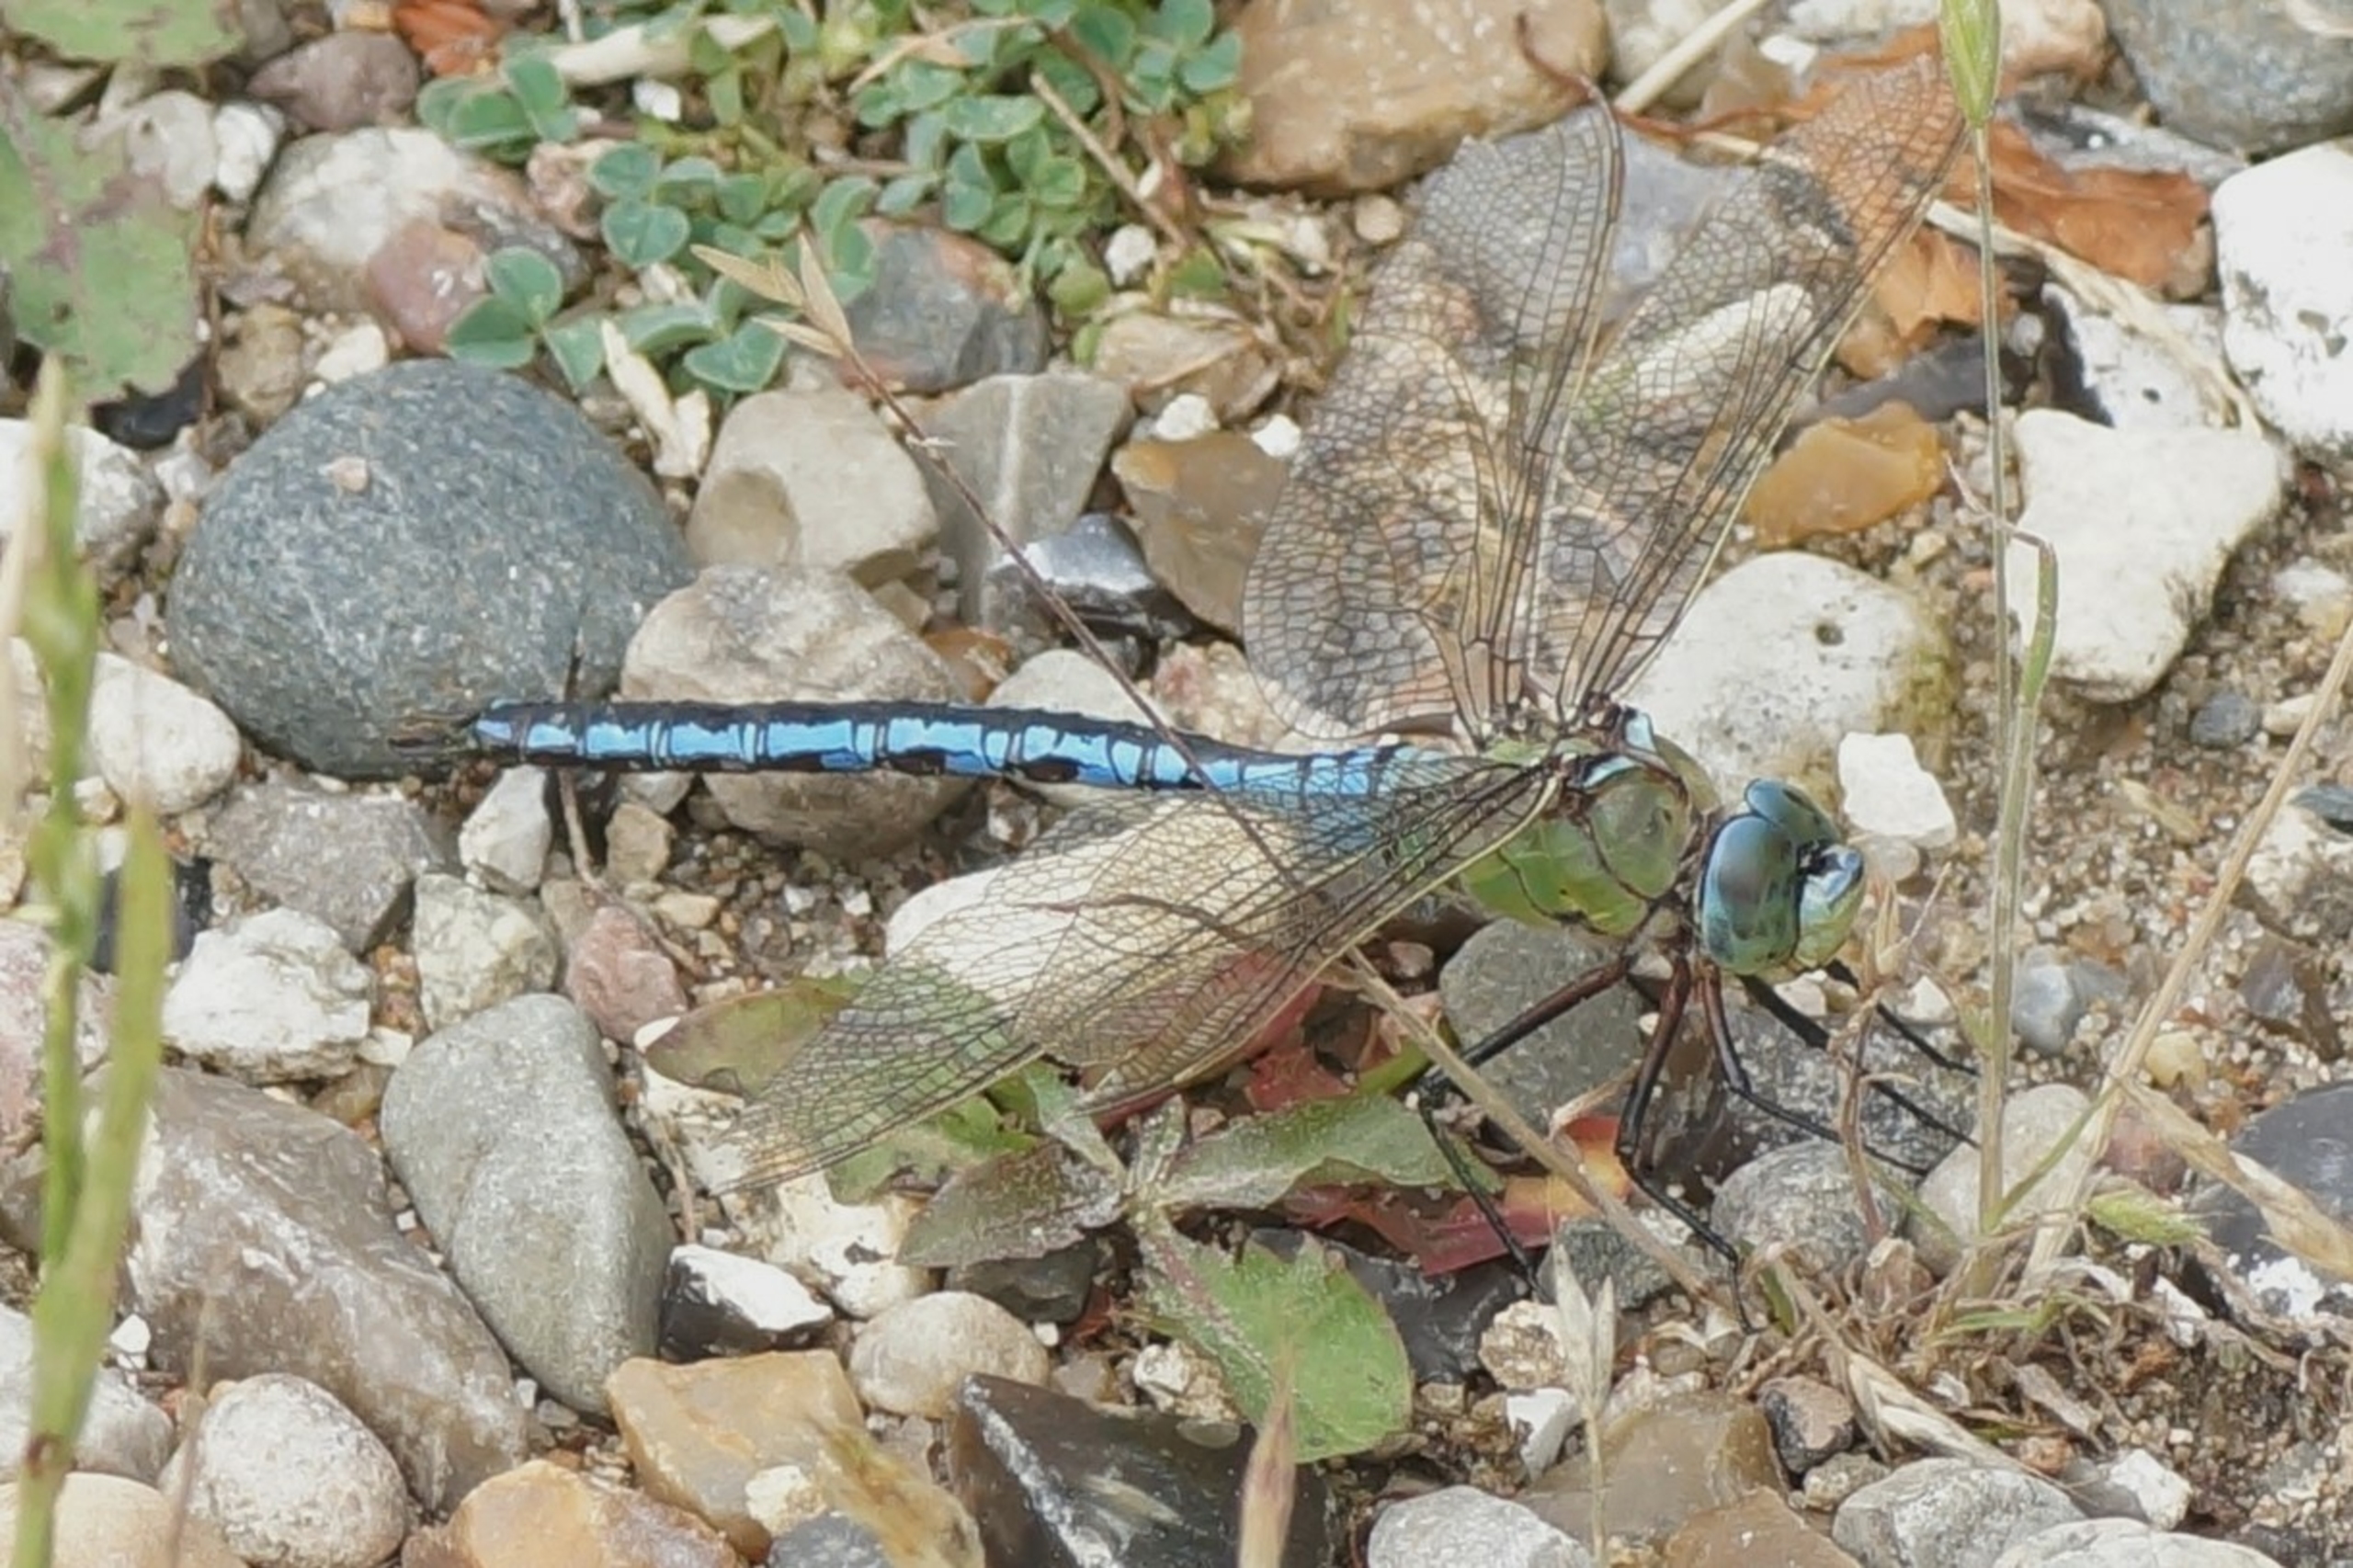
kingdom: Animalia
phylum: Arthropoda
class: Insecta
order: Odonata
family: Aeshnidae
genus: Anax
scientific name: Anax imperator
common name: Stor kejserguldsmed
